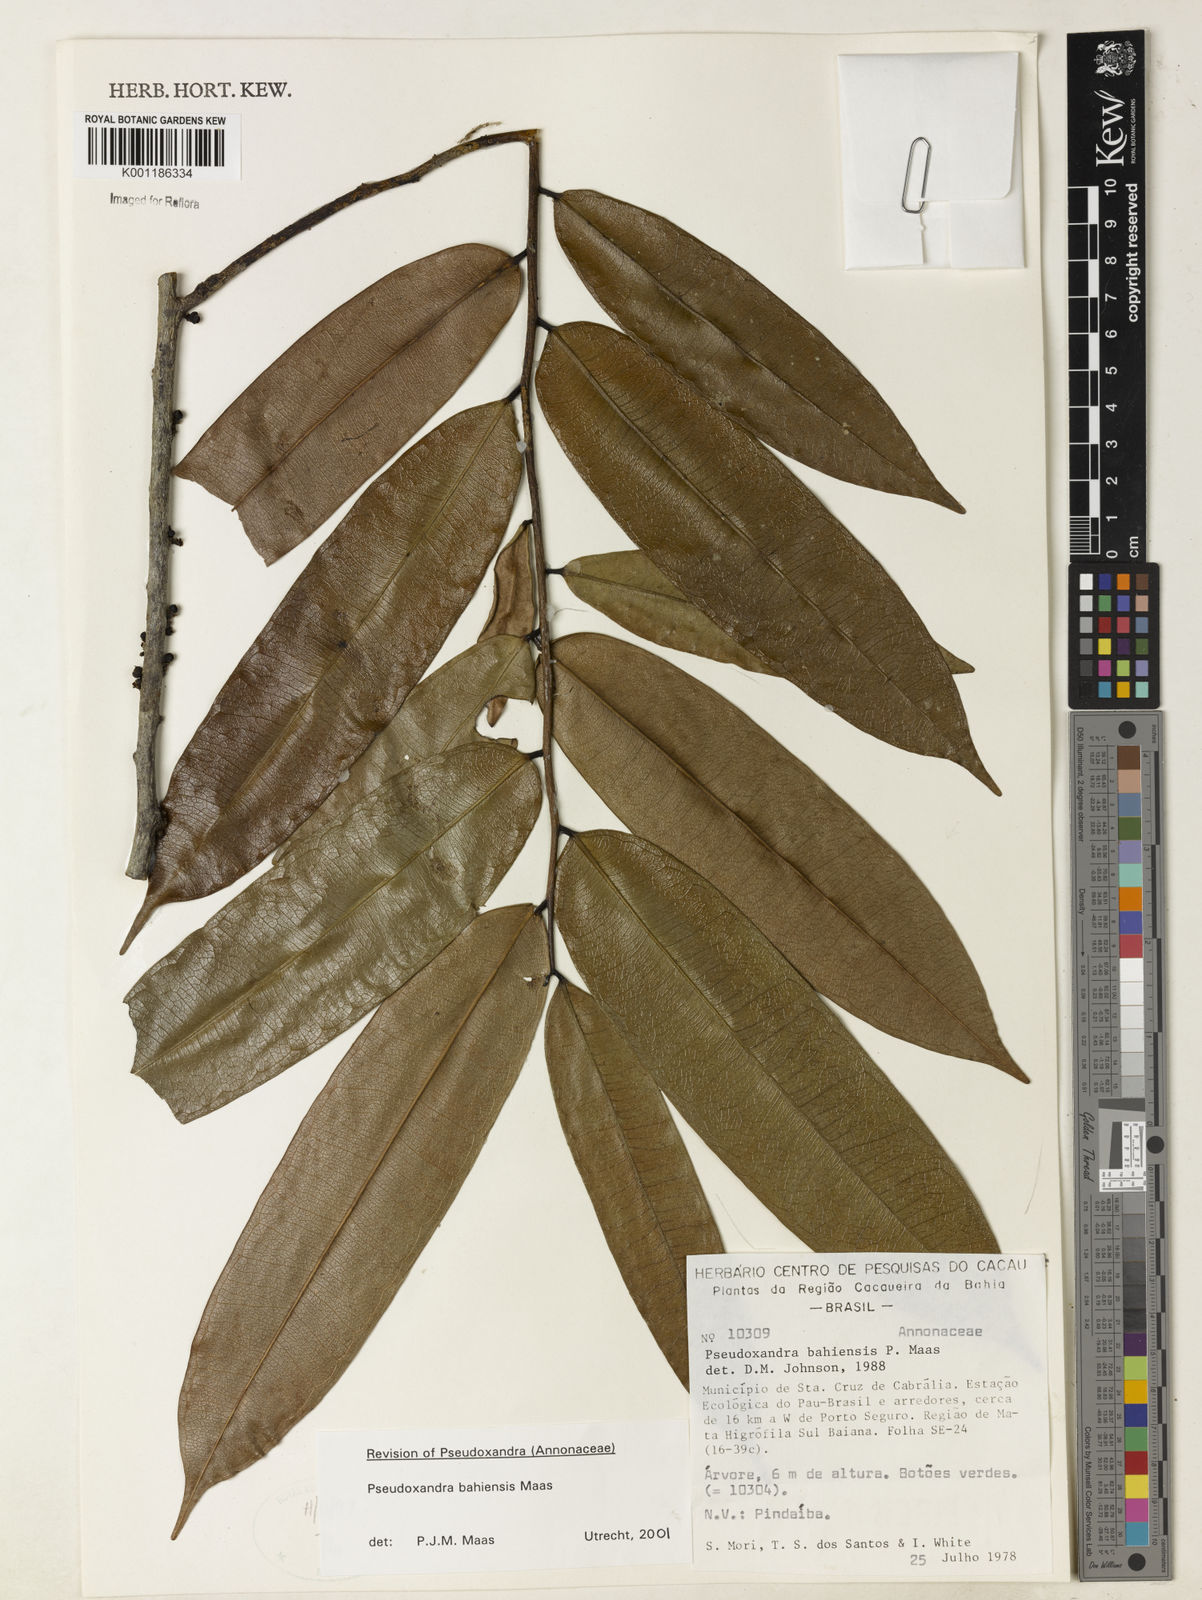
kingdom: Plantae
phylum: Tracheophyta
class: Magnoliopsida
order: Magnoliales
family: Annonaceae
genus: Pseudoxandra
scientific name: Pseudoxandra bahiensis
